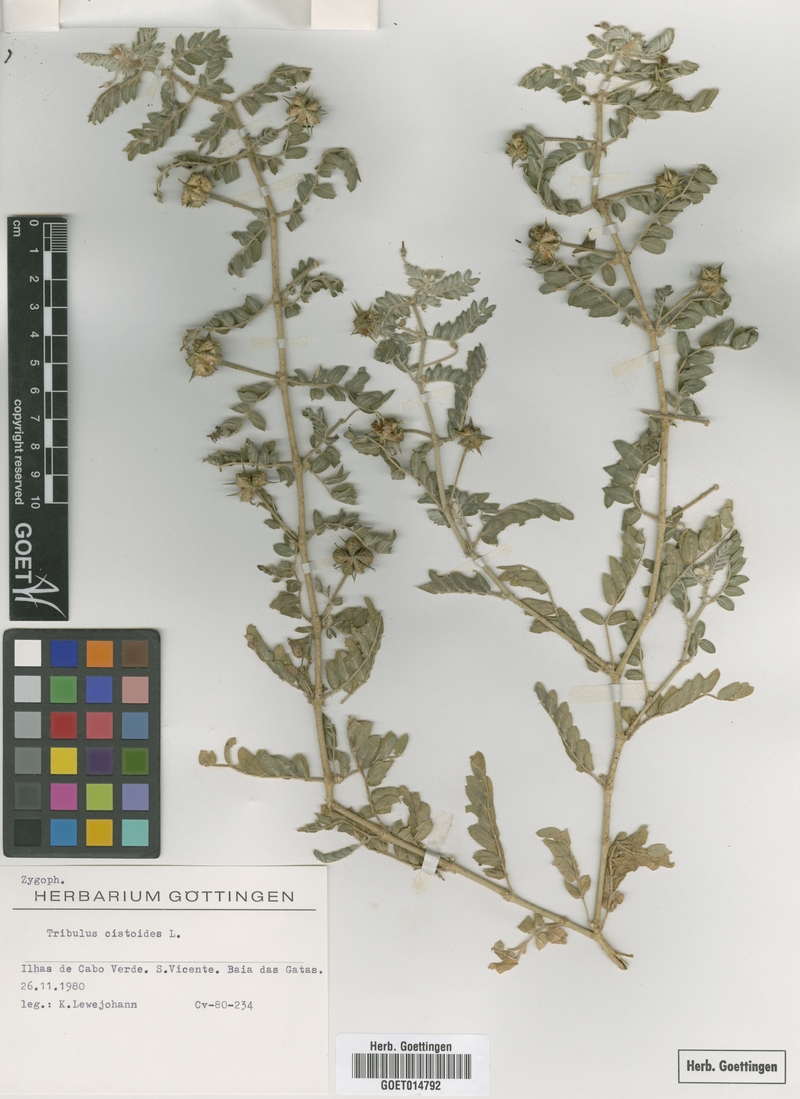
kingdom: Plantae
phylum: Tracheophyta
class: Magnoliopsida
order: Zygophyllales
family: Zygophyllaceae
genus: Tribulus
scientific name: Tribulus cistoides
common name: Jamaican feverplant
